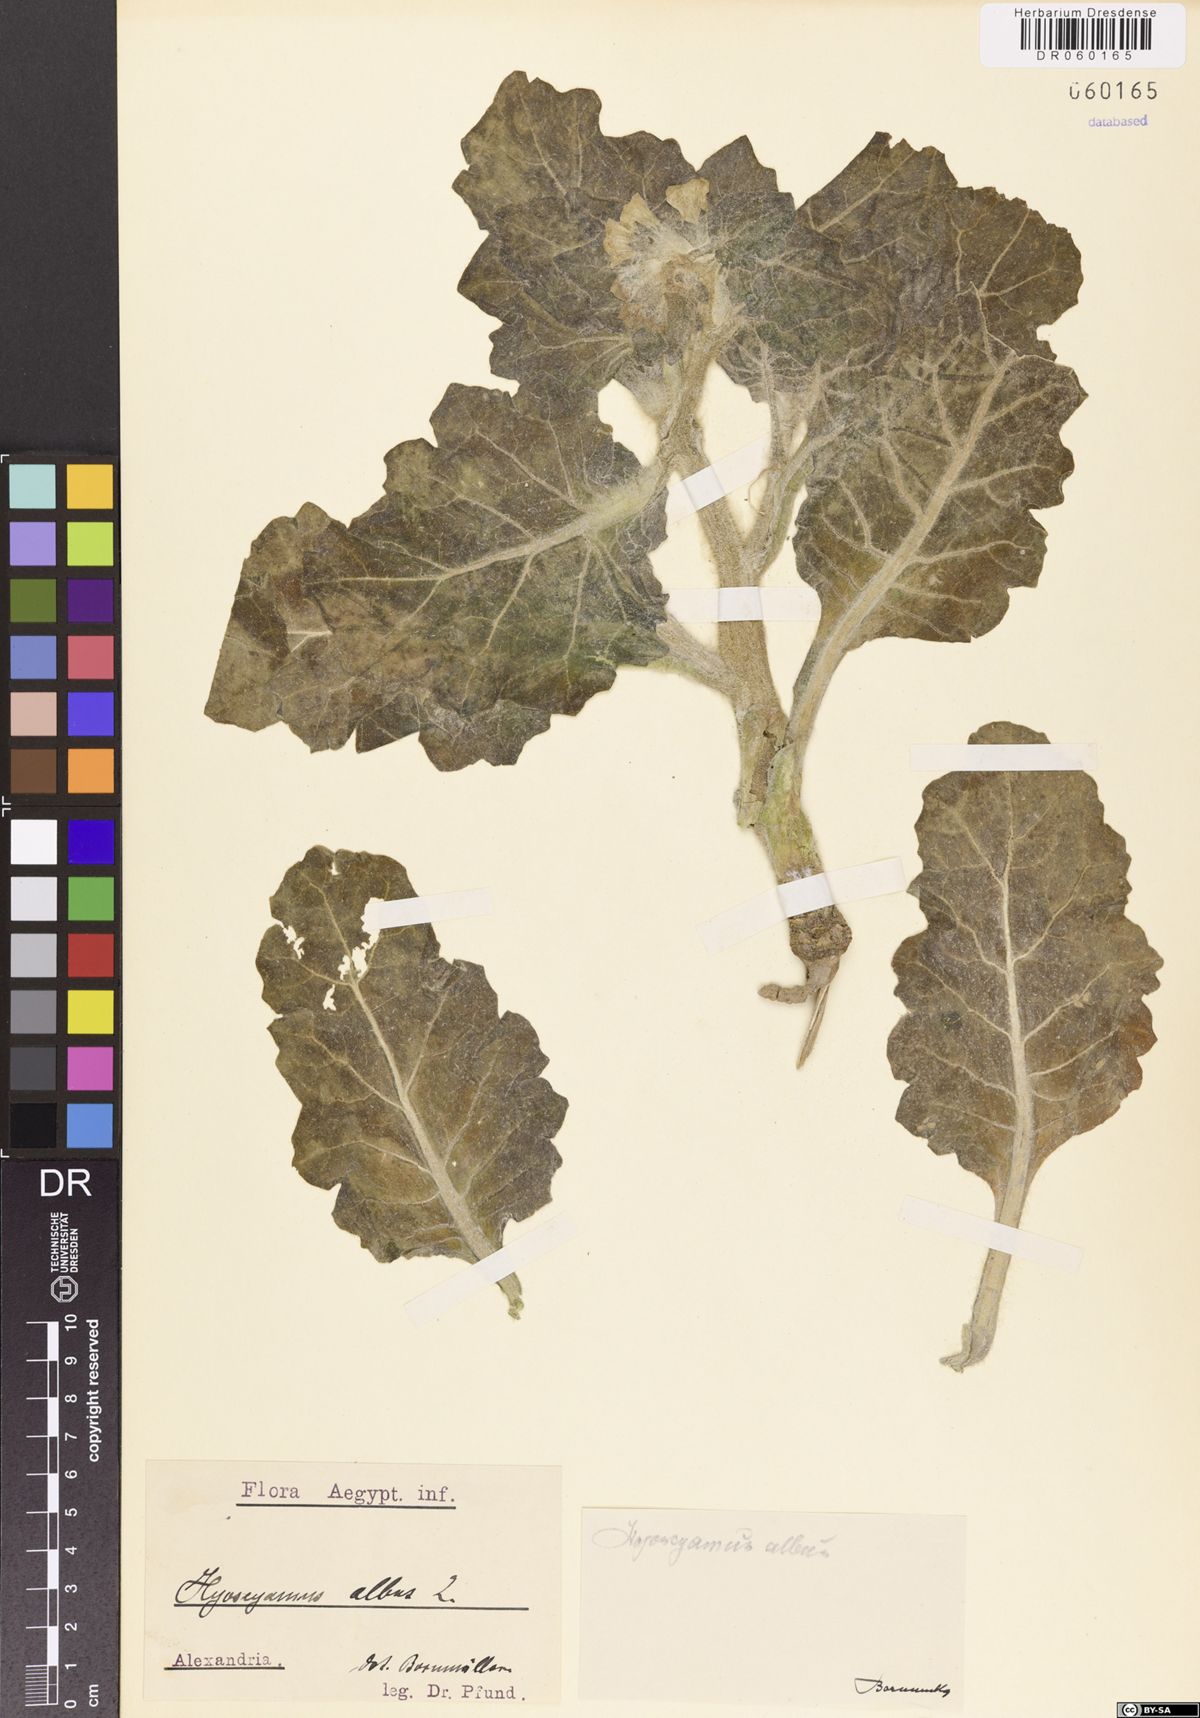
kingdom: Plantae
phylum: Tracheophyta
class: Magnoliopsida
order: Solanales
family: Solanaceae
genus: Hyoscyamus
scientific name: Hyoscyamus albus
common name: White henbane
